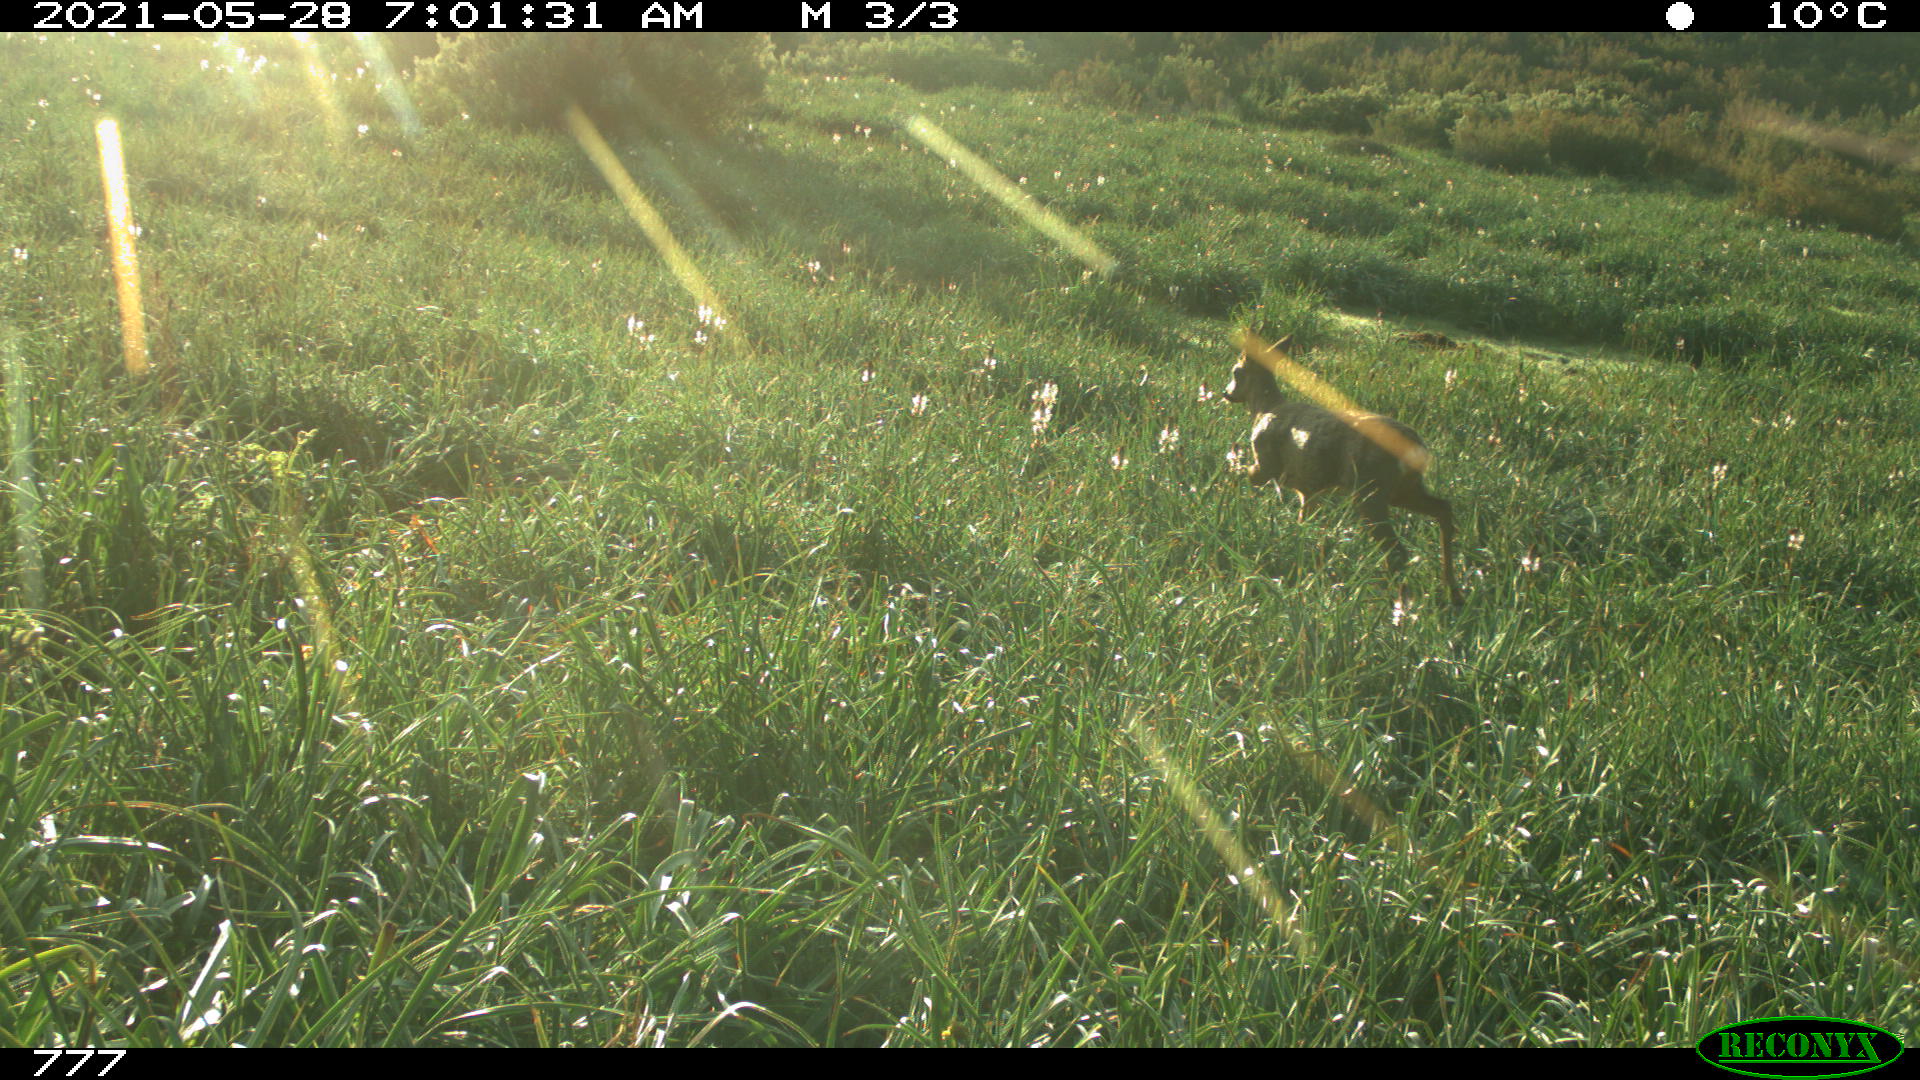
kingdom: Animalia
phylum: Chordata
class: Mammalia
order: Artiodactyla
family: Cervidae
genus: Capreolus
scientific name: Capreolus capreolus
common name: Western roe deer
